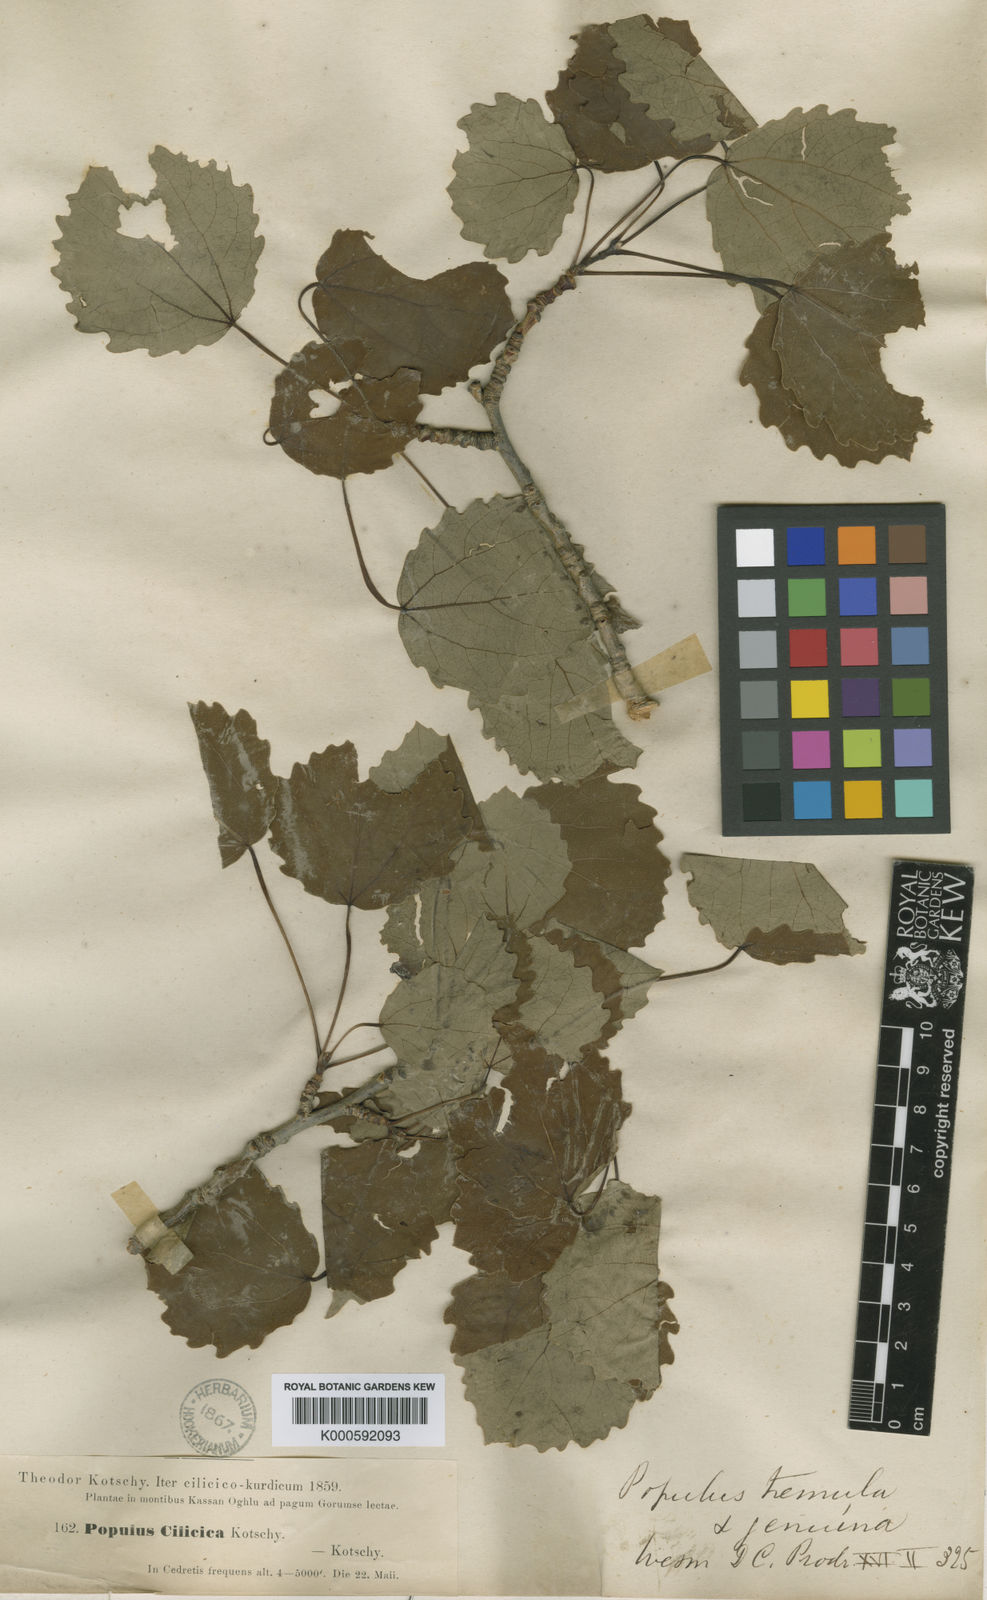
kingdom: Plantae
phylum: Tracheophyta
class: Magnoliopsida
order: Malpighiales
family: Salicaceae
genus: Populus
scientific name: Populus tremula
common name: European aspen
